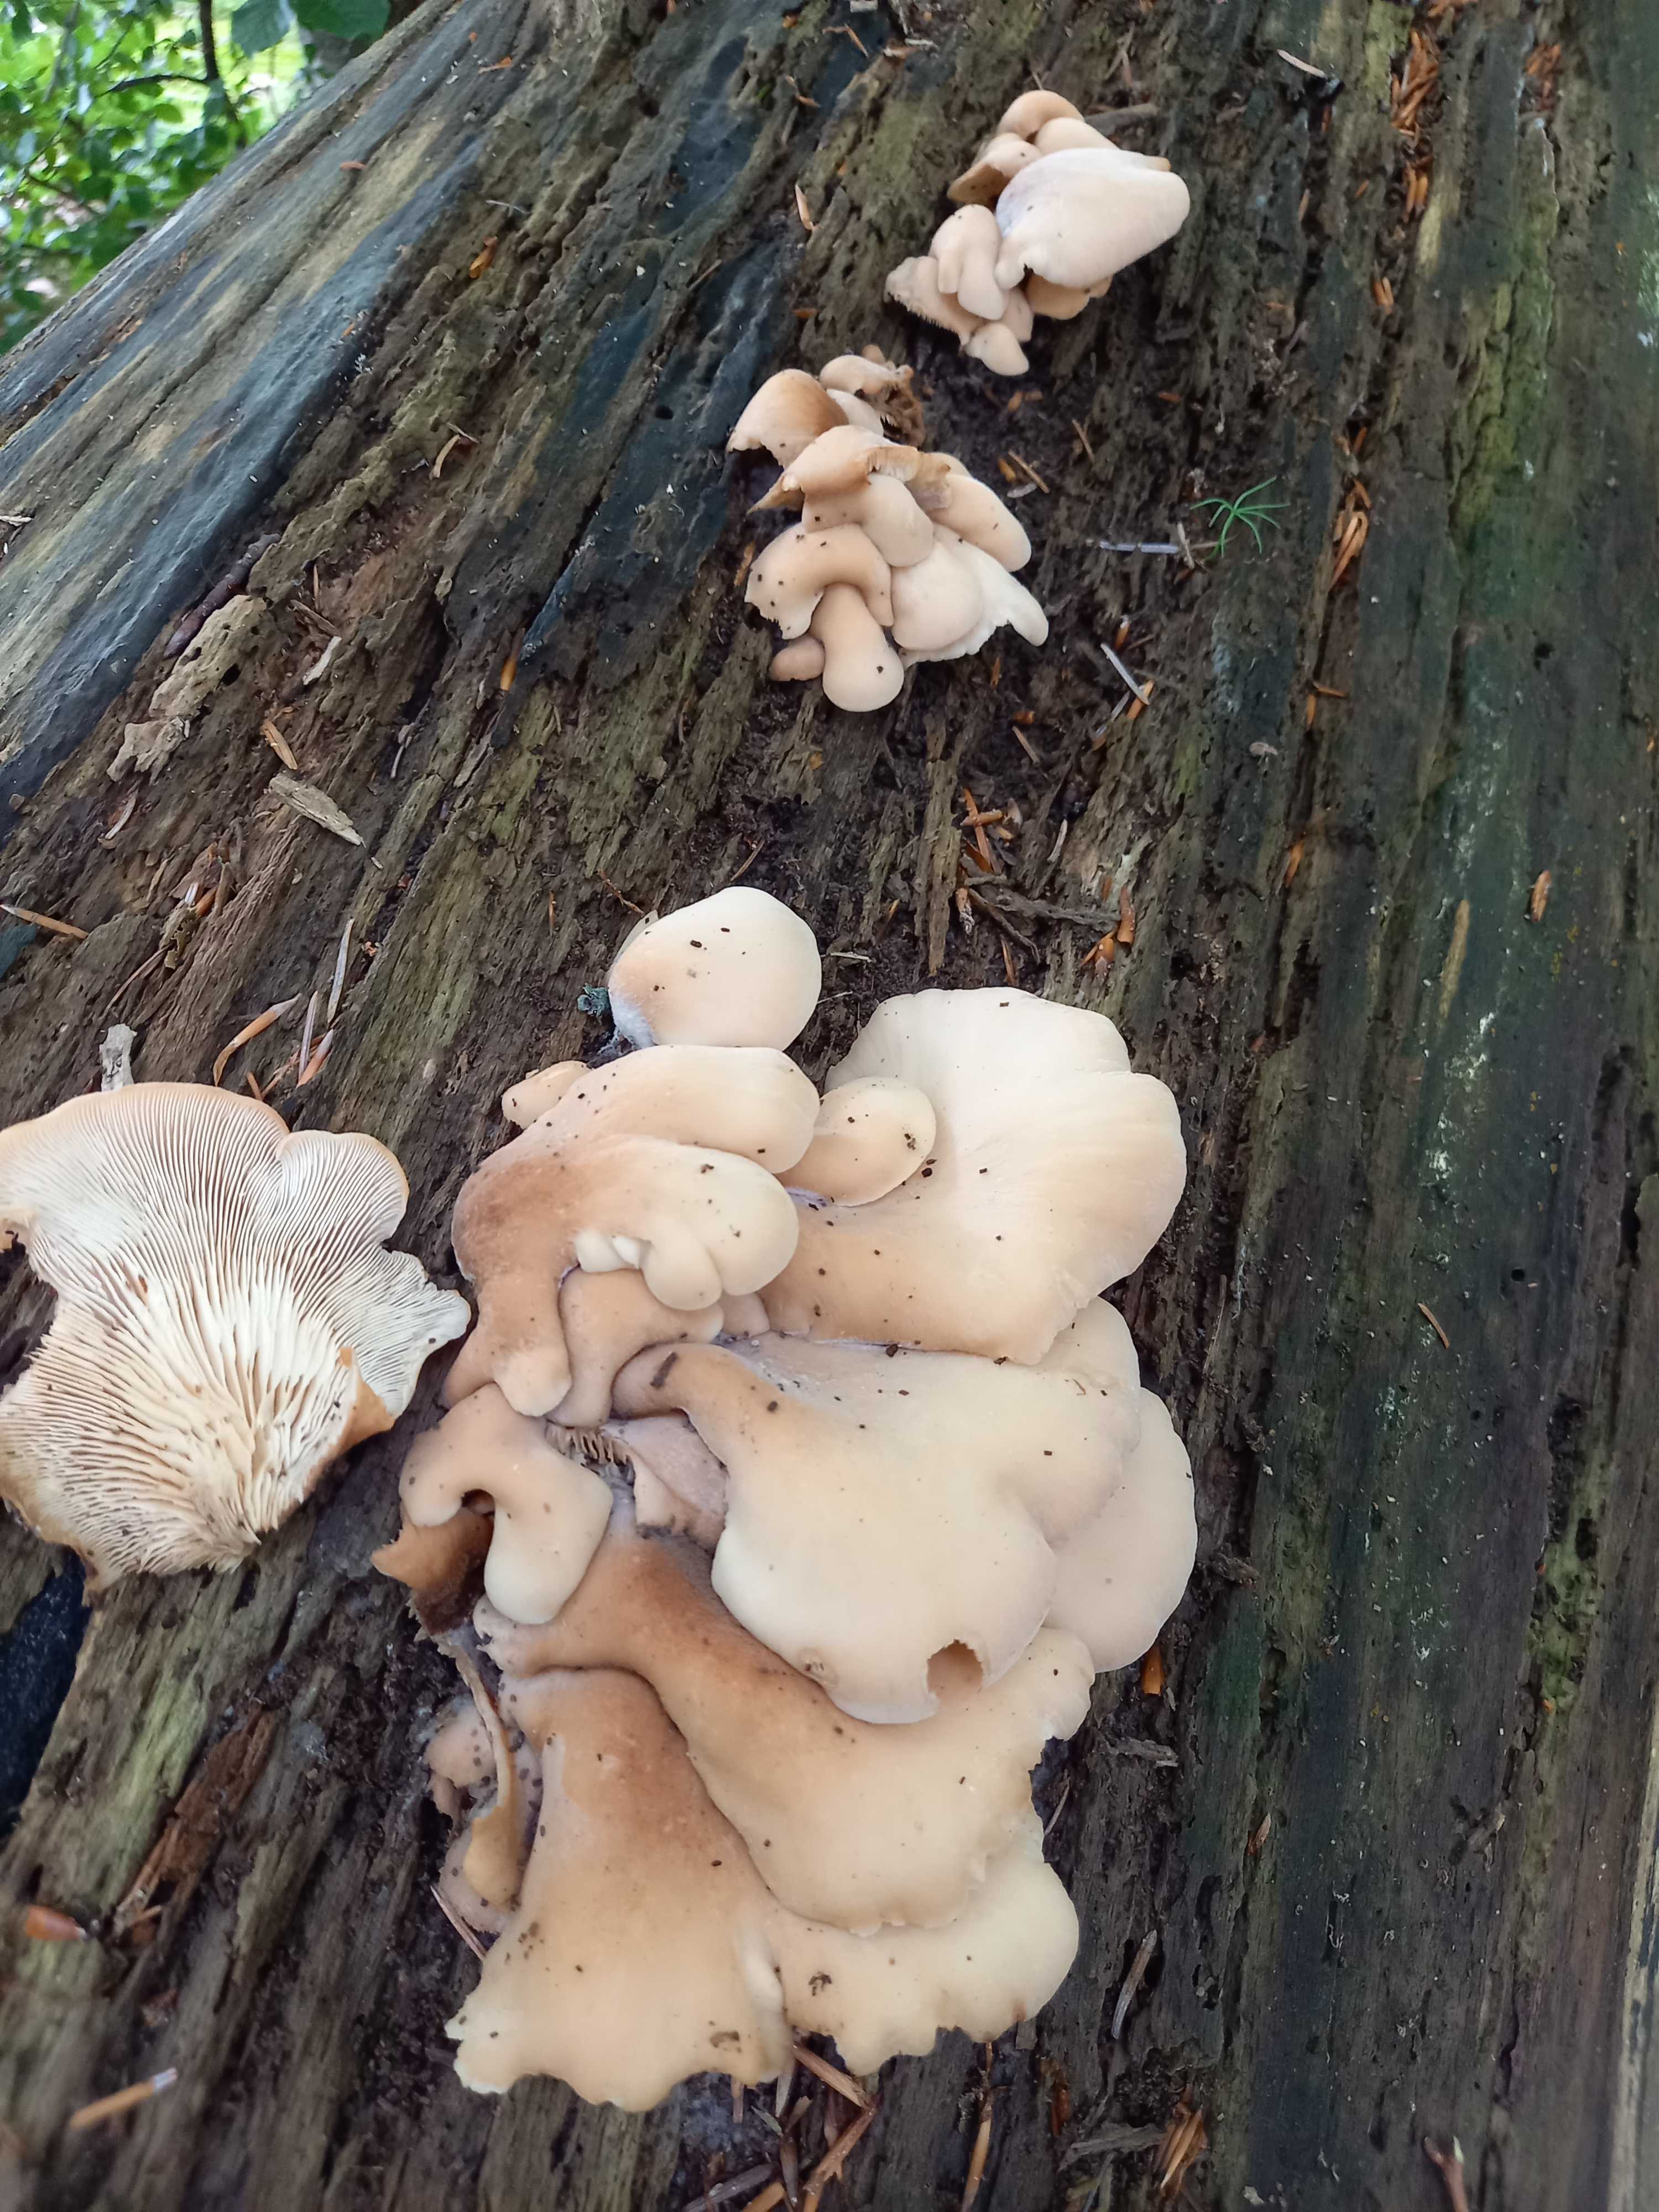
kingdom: Fungi
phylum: Basidiomycota
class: Agaricomycetes
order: Russulales
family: Auriscalpiaceae
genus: Lentinellus
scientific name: Lentinellus ursinus
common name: børstehåret savbladhat
